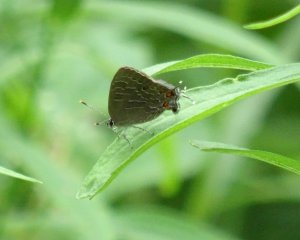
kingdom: Animalia
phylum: Arthropoda
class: Insecta
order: Lepidoptera
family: Lycaenidae
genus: Satyrium
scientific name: Satyrium liparops
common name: Striped Hairstreak
